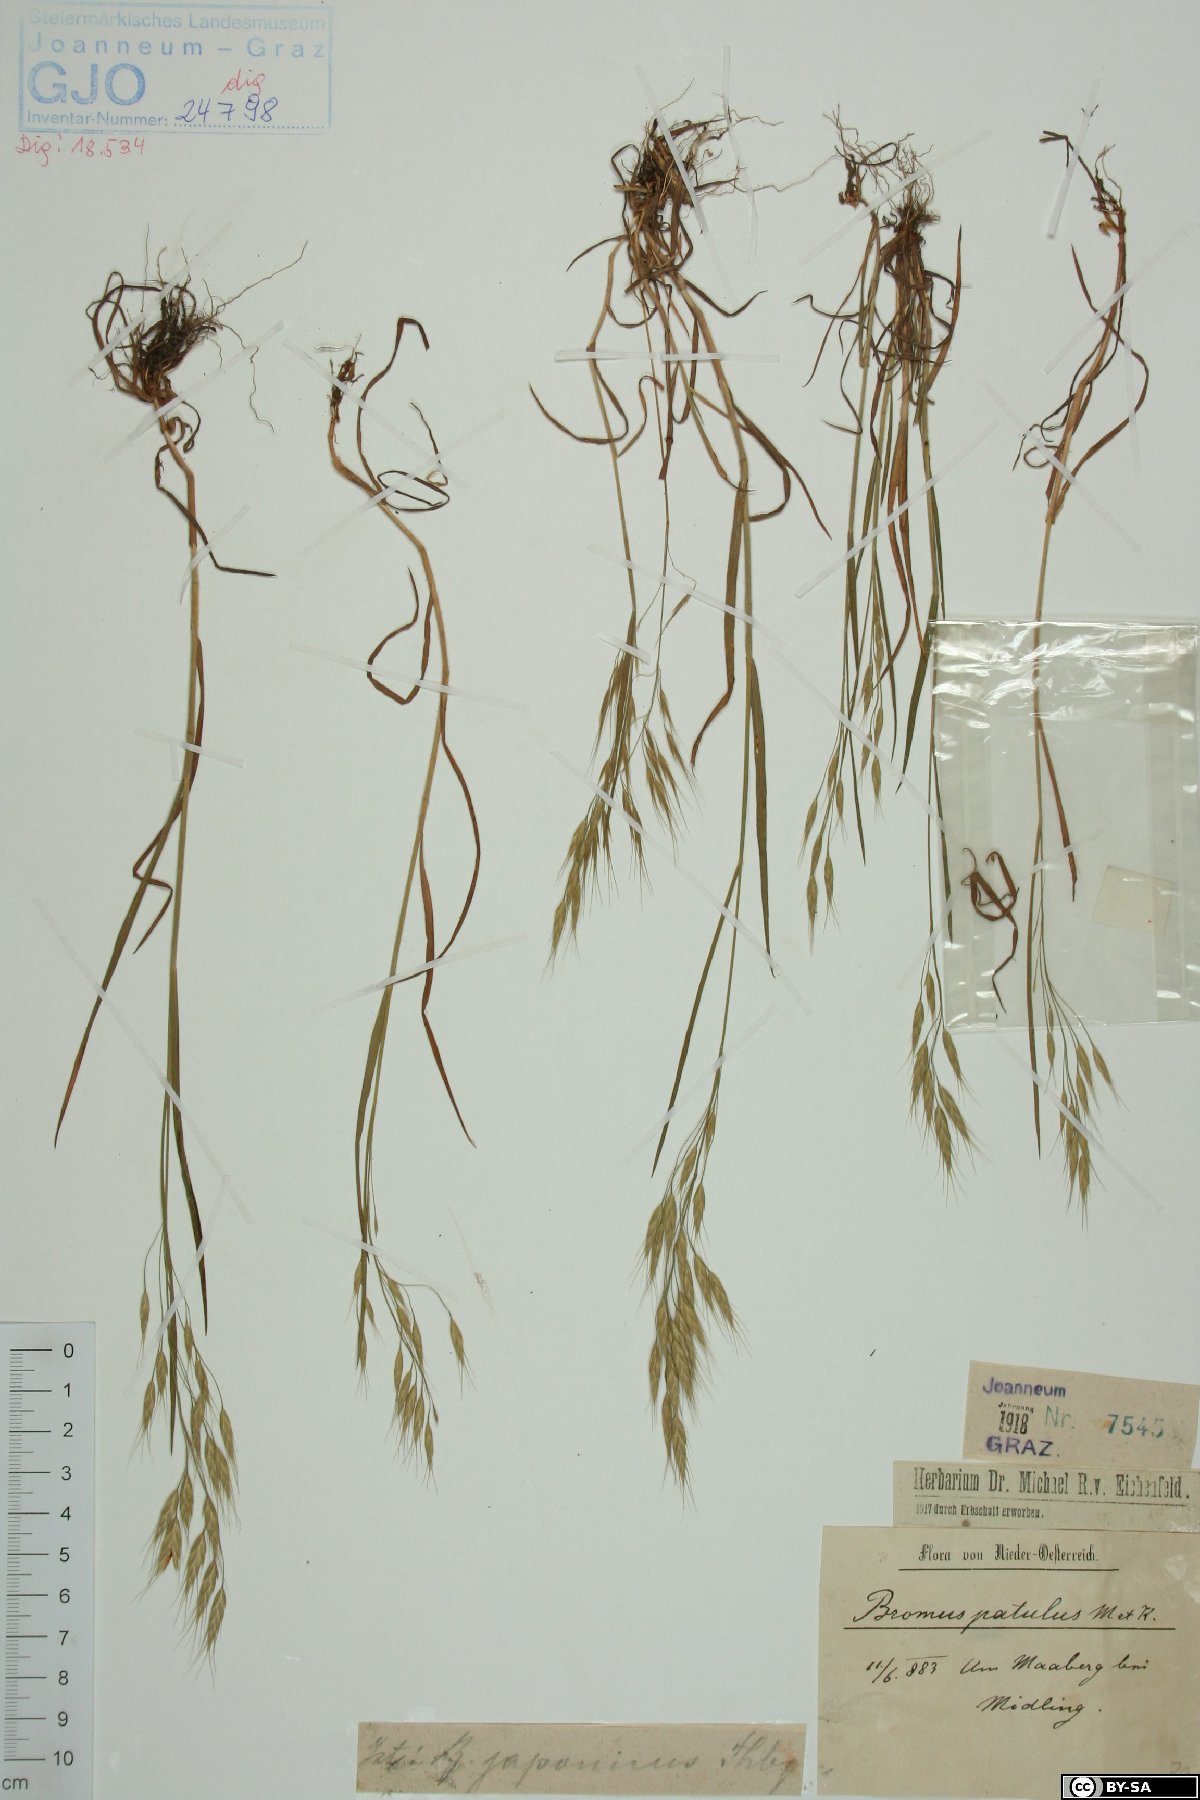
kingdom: Plantae
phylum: Tracheophyta
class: Liliopsida
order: Poales
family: Poaceae
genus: Bromus
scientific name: Bromus japonicus
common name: Japanese brome
